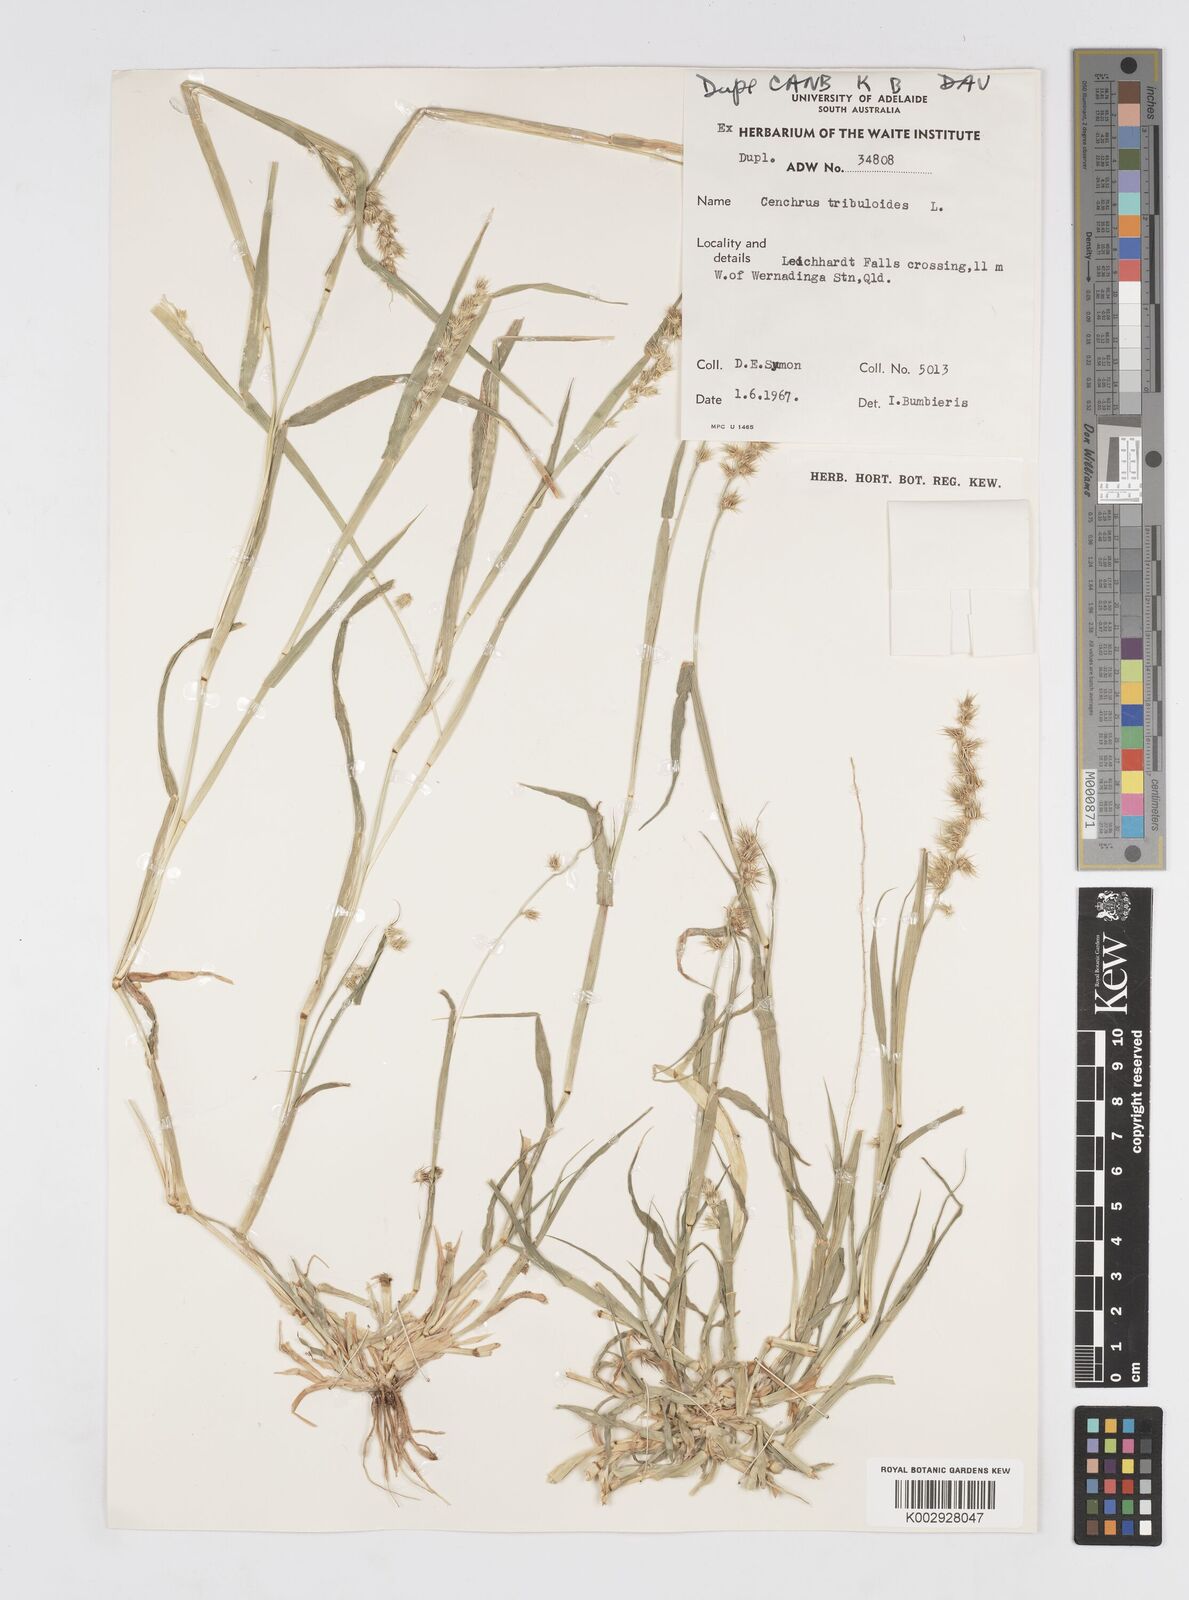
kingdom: Plantae
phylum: Tracheophyta
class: Liliopsida
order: Poales
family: Poaceae
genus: Cenchrus
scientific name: Cenchrus biflorus
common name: Indian sandbur
